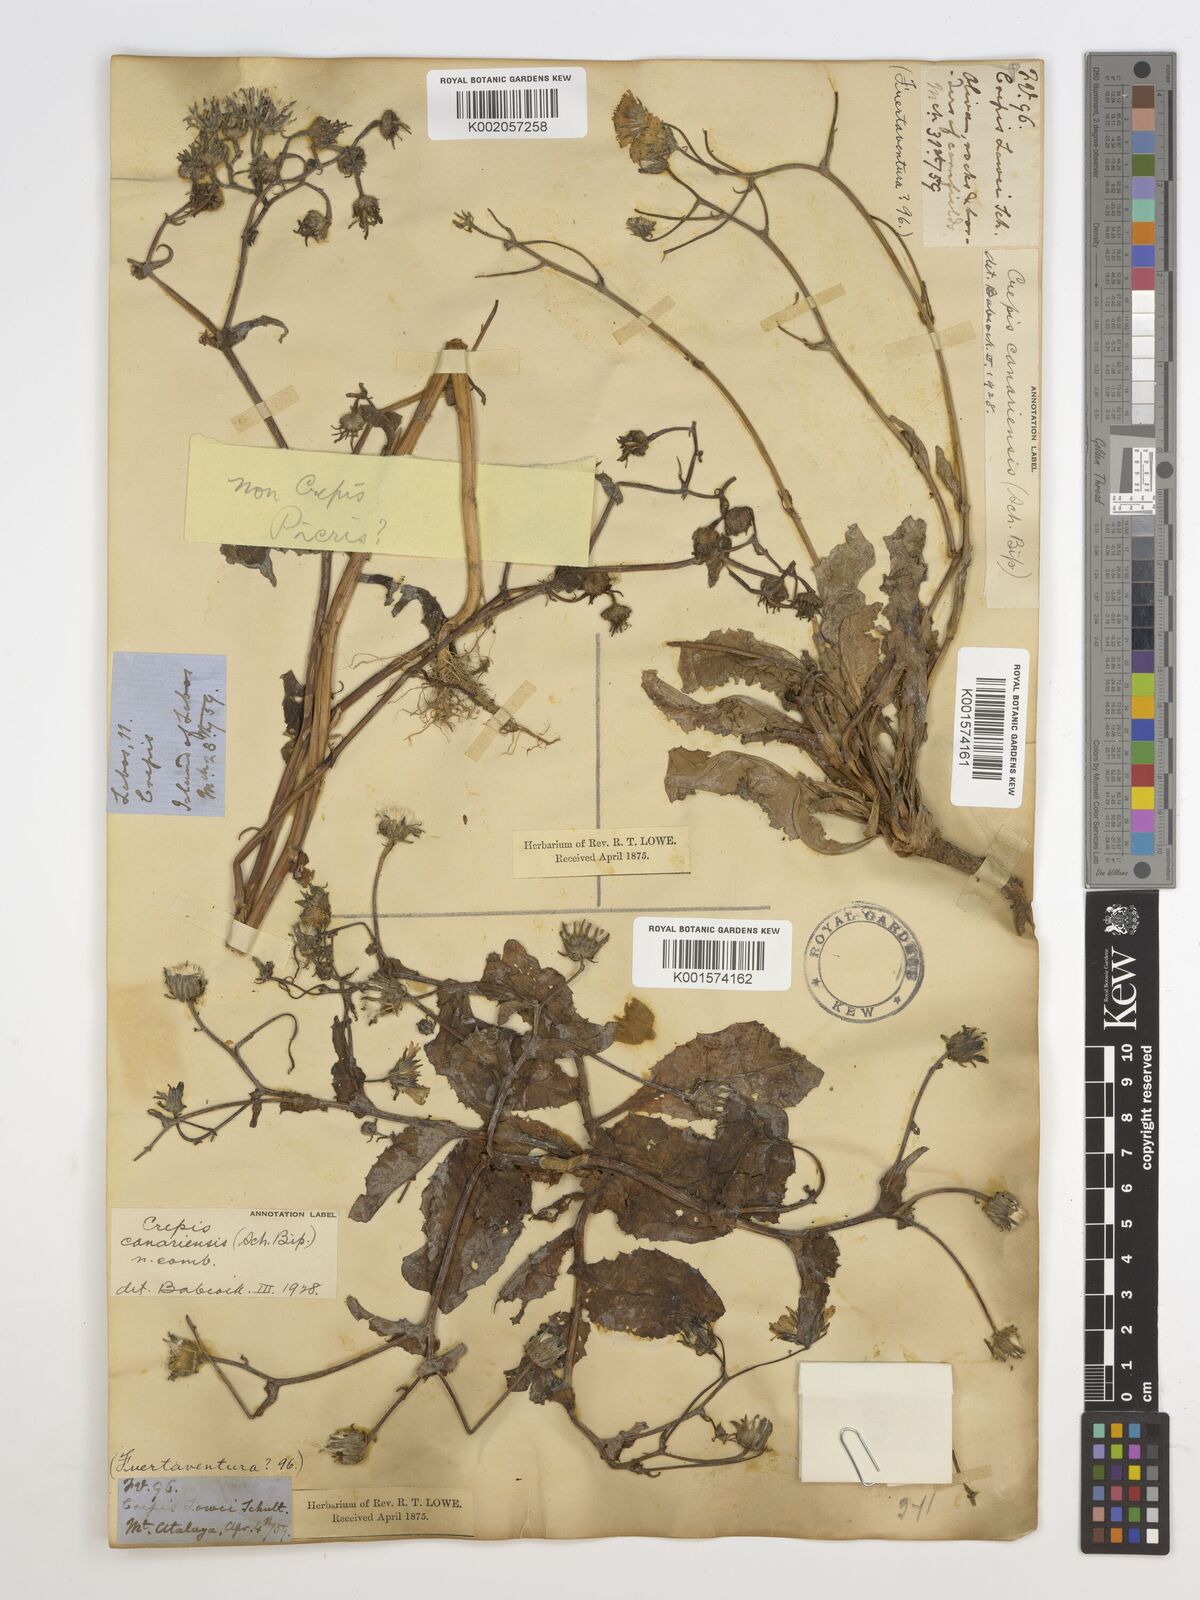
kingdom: Plantae
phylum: Tracheophyta
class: Magnoliopsida
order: Asterales
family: Asteraceae
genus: Crepis
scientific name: Crepis canariensis
